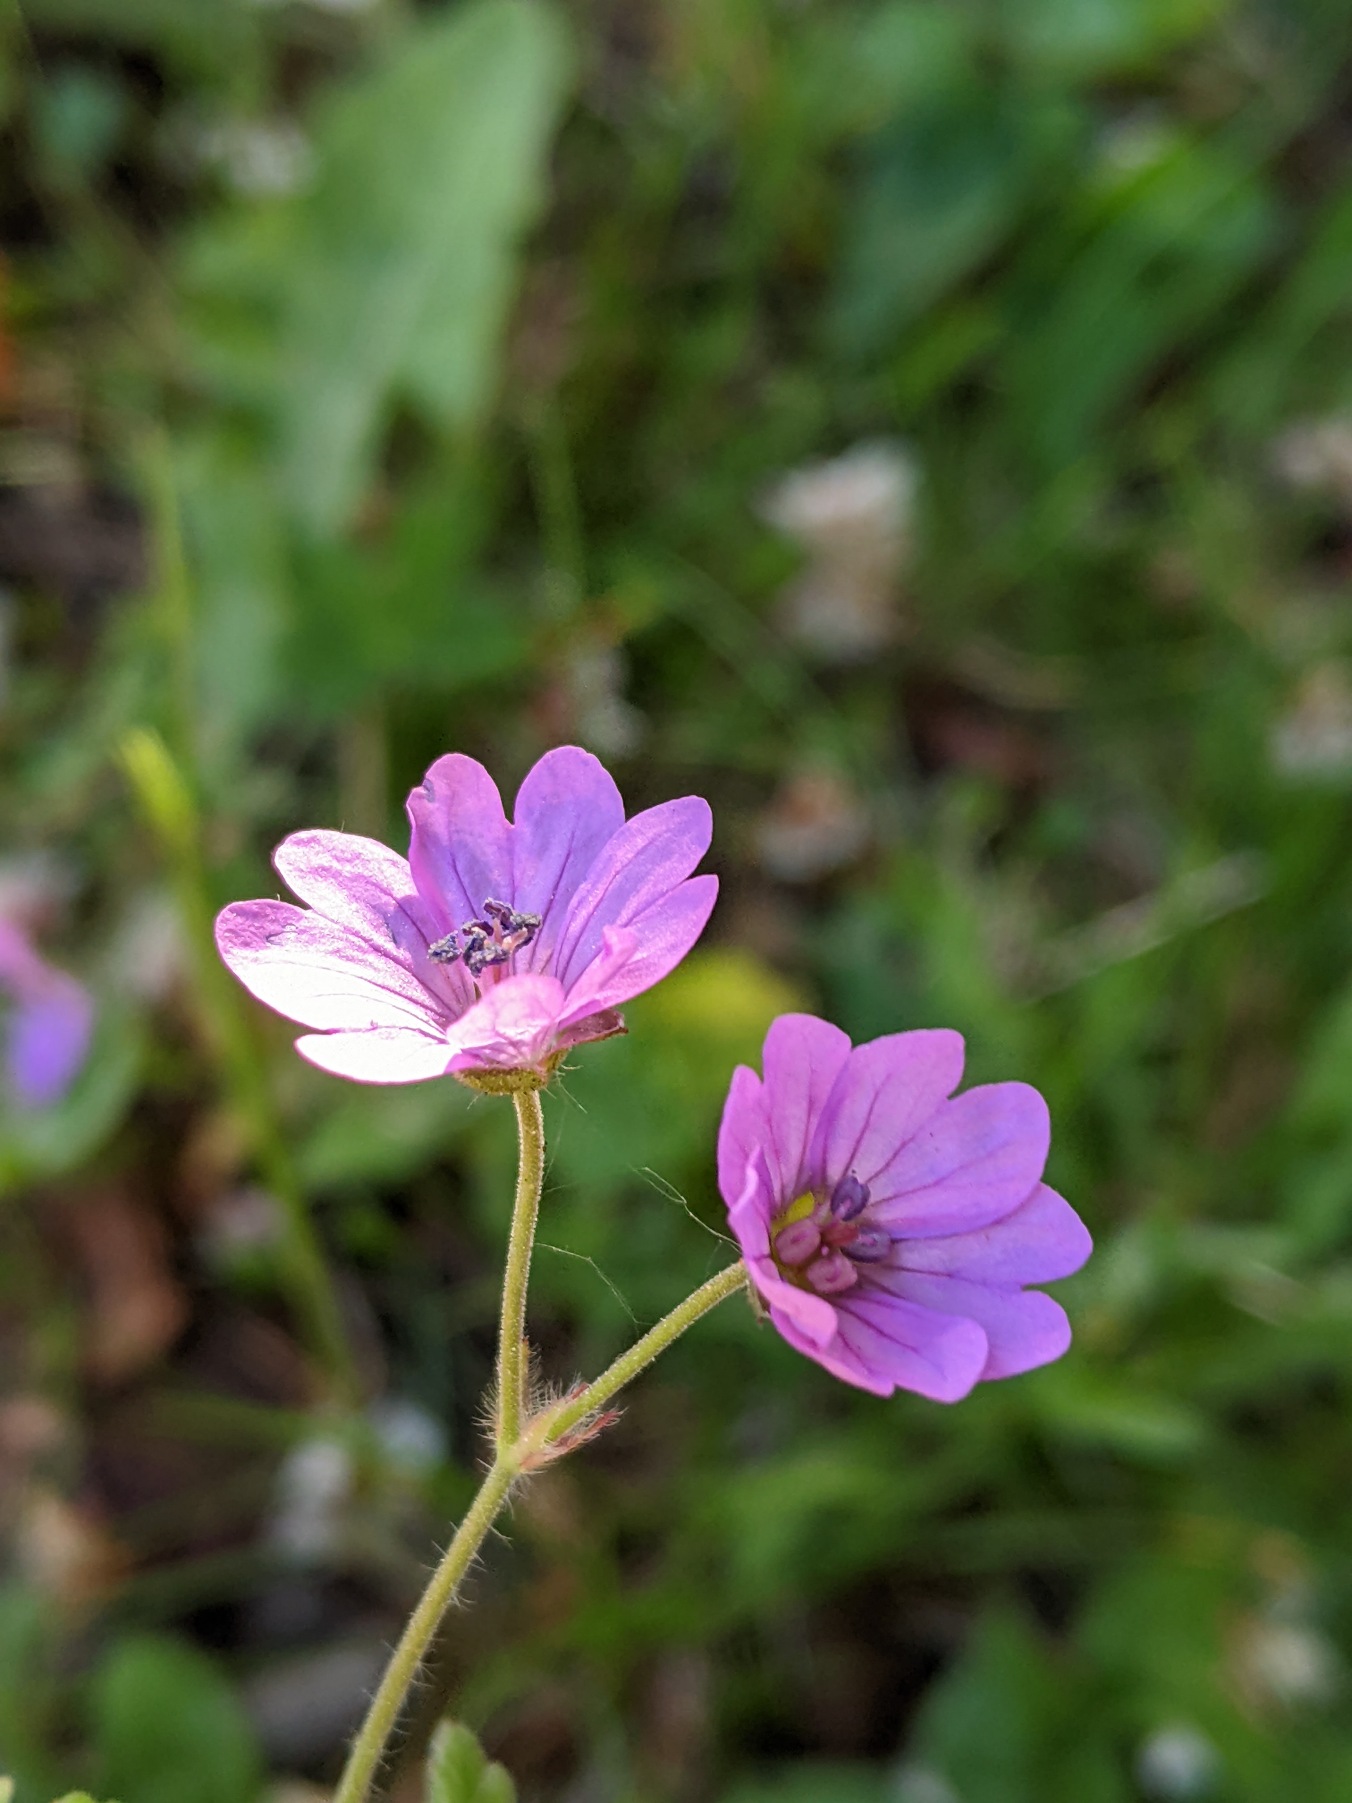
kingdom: Plantae
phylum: Tracheophyta
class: Magnoliopsida
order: Geraniales
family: Geraniaceae
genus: Geranium
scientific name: Geranium pyrenaicum
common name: Pyrenæisk storkenæb
